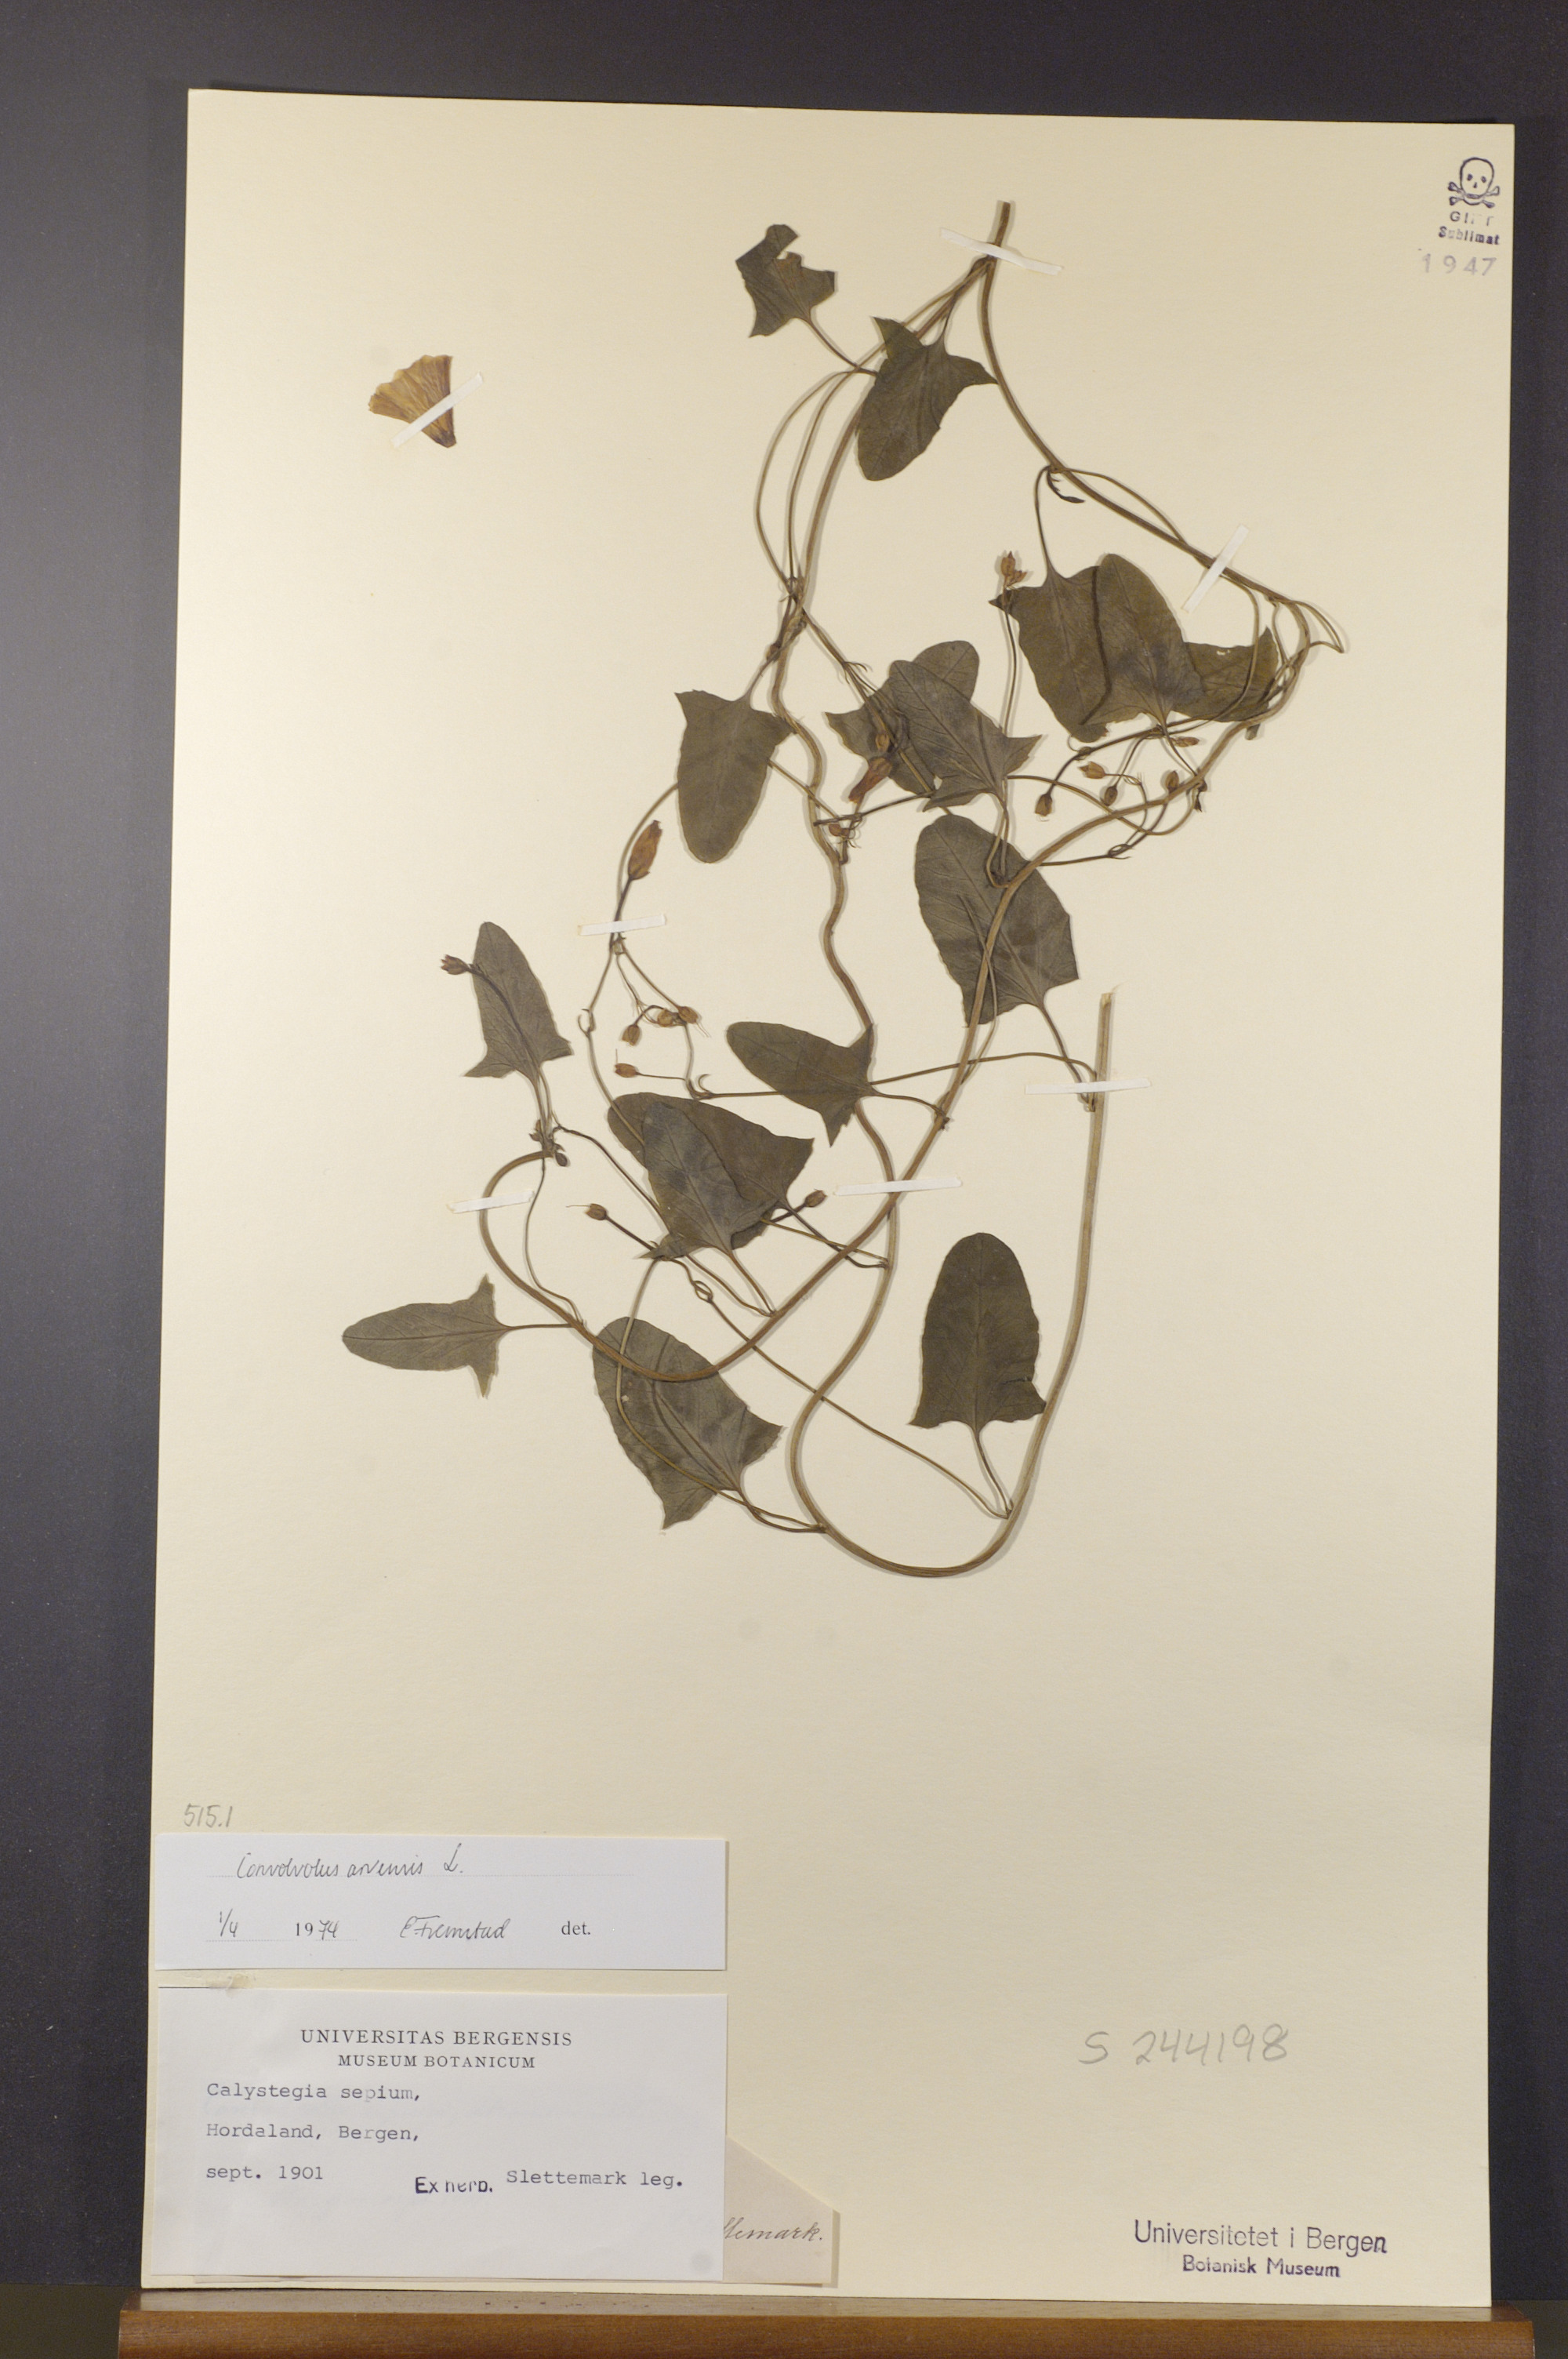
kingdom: Plantae
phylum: Tracheophyta
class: Magnoliopsida
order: Solanales
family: Convolvulaceae
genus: Convolvulus
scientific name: Convolvulus arvensis
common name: Field bindweed
